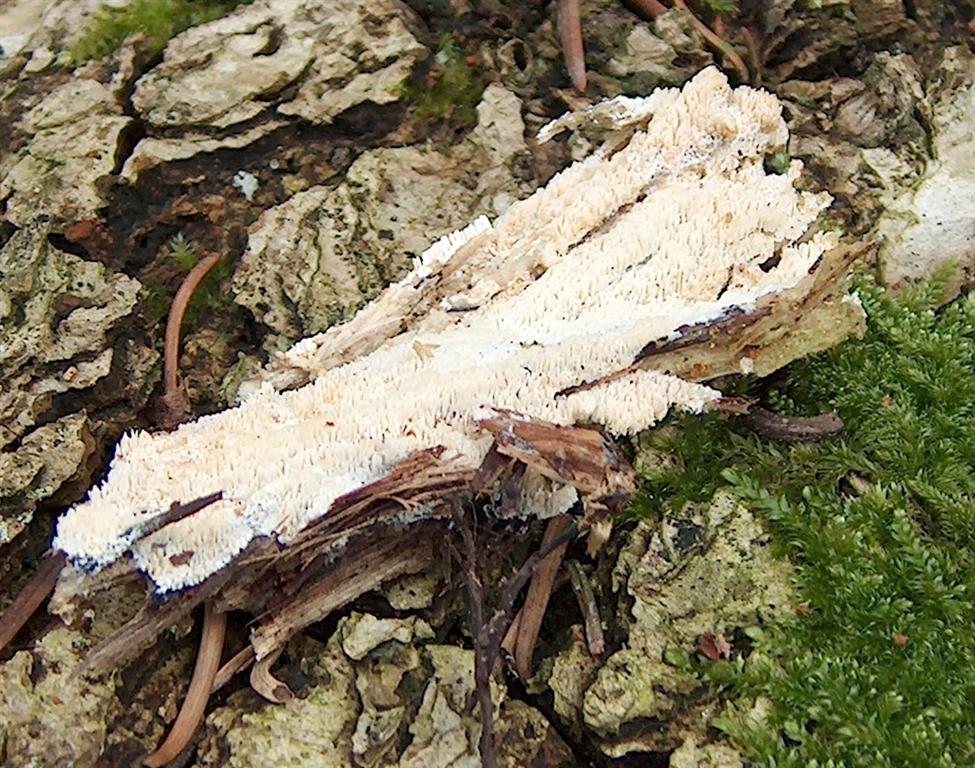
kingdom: Fungi
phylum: Basidiomycota
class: Agaricomycetes
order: Hymenochaetales
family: Schizoporaceae
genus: Schizopora
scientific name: Schizopora paradoxa
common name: hvid tandsvamp
